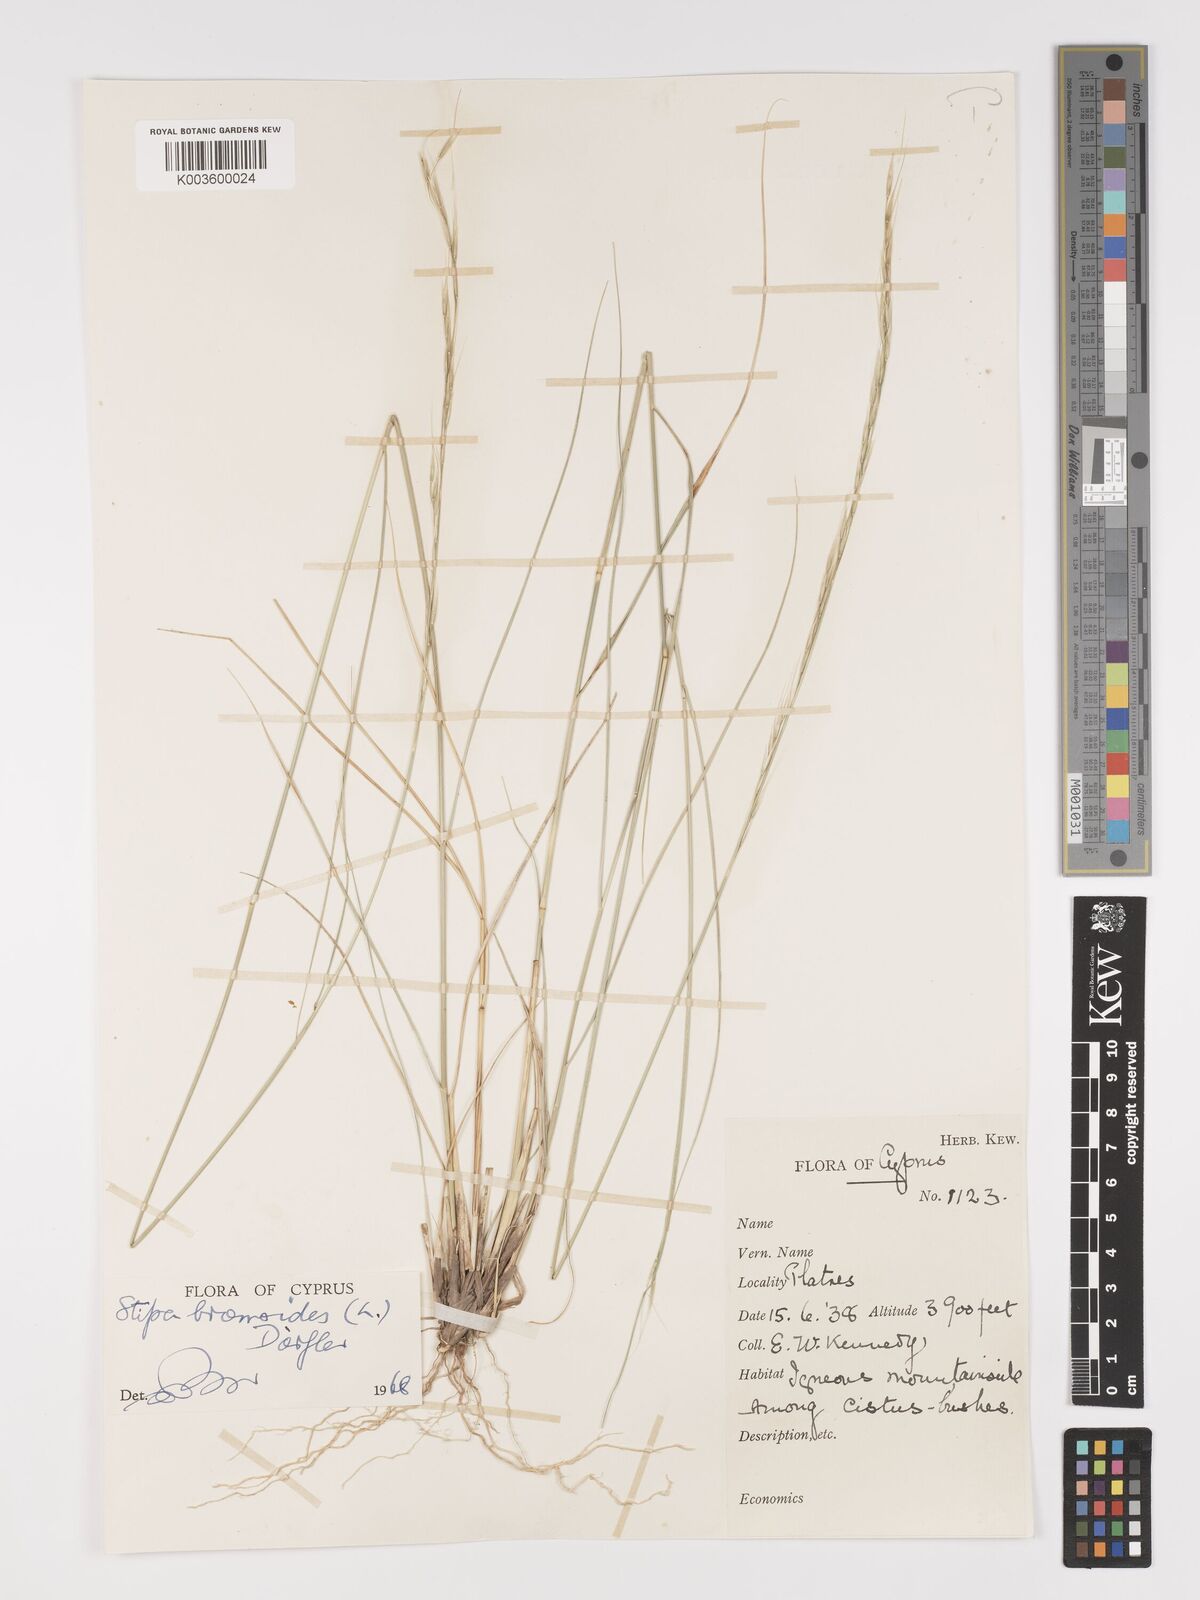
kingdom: Plantae
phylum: Tracheophyta
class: Liliopsida
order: Poales
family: Poaceae
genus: Achnatherum
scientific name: Achnatherum bromoides
